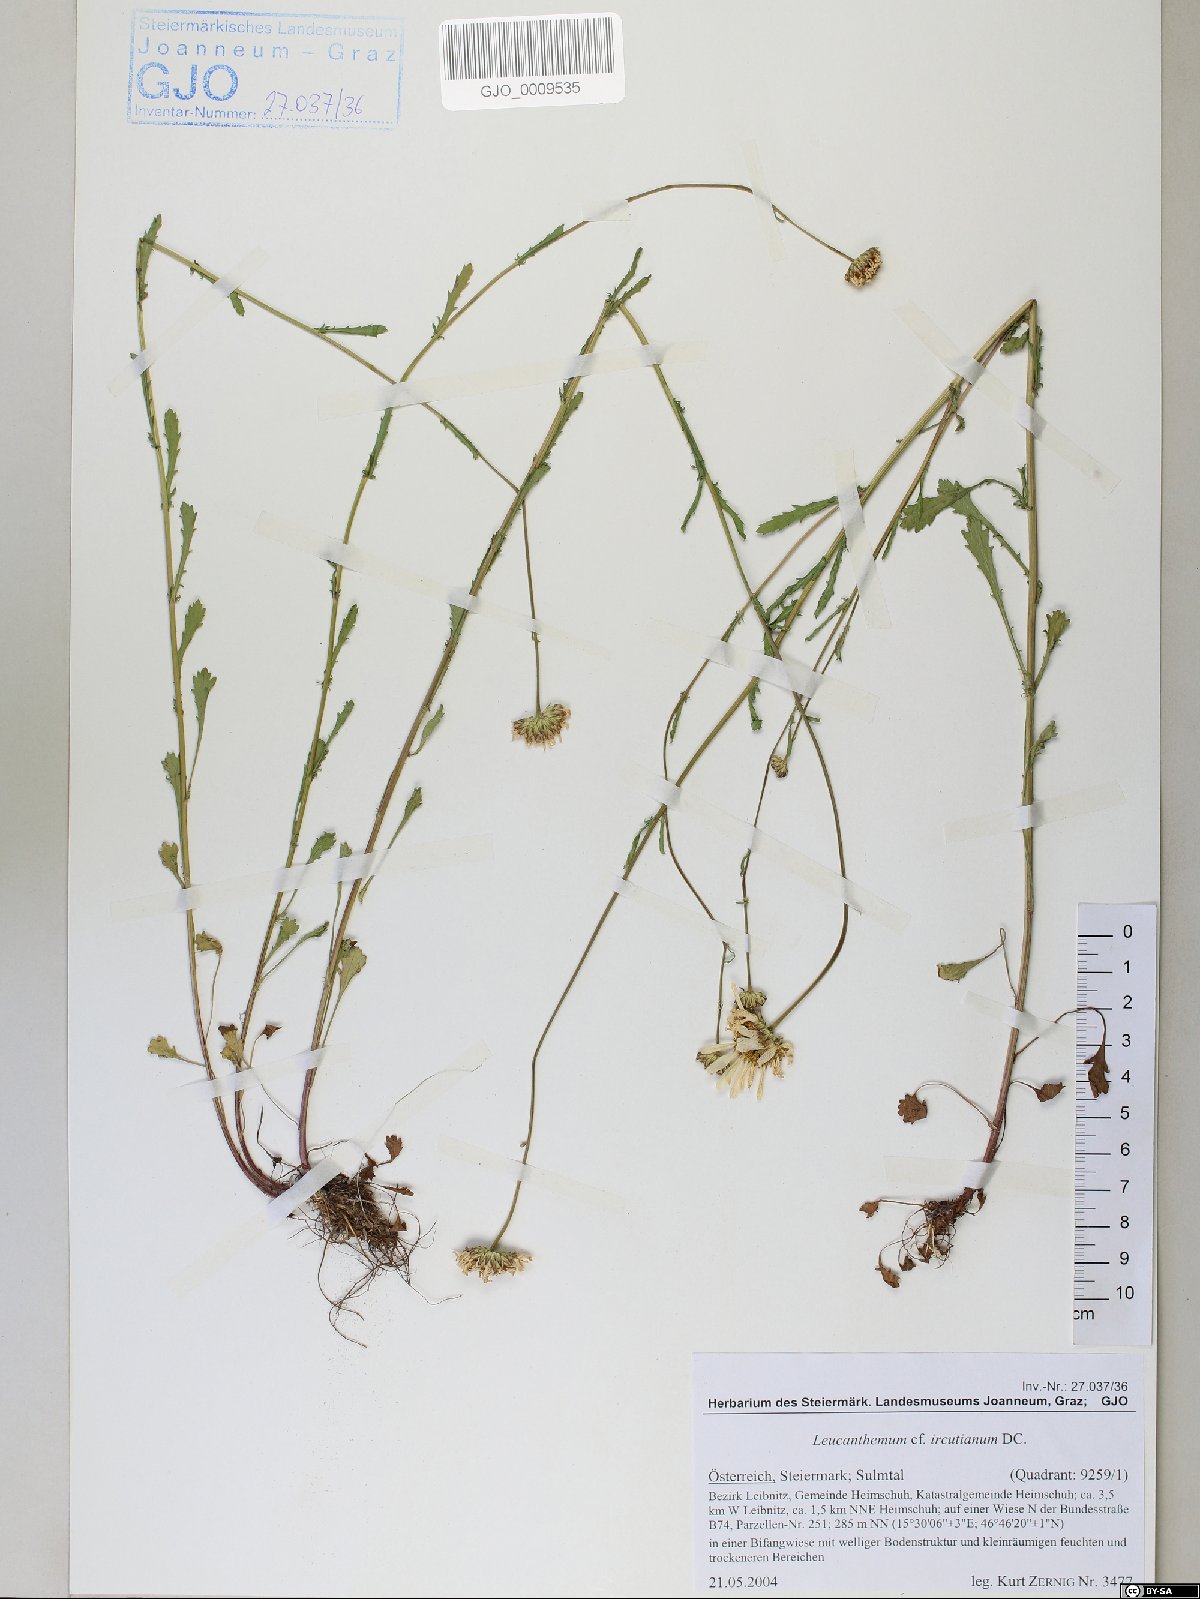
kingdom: Plantae
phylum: Tracheophyta
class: Magnoliopsida
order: Asterales
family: Asteraceae
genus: Leucanthemum
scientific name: Leucanthemum ircutianum
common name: Daisy
